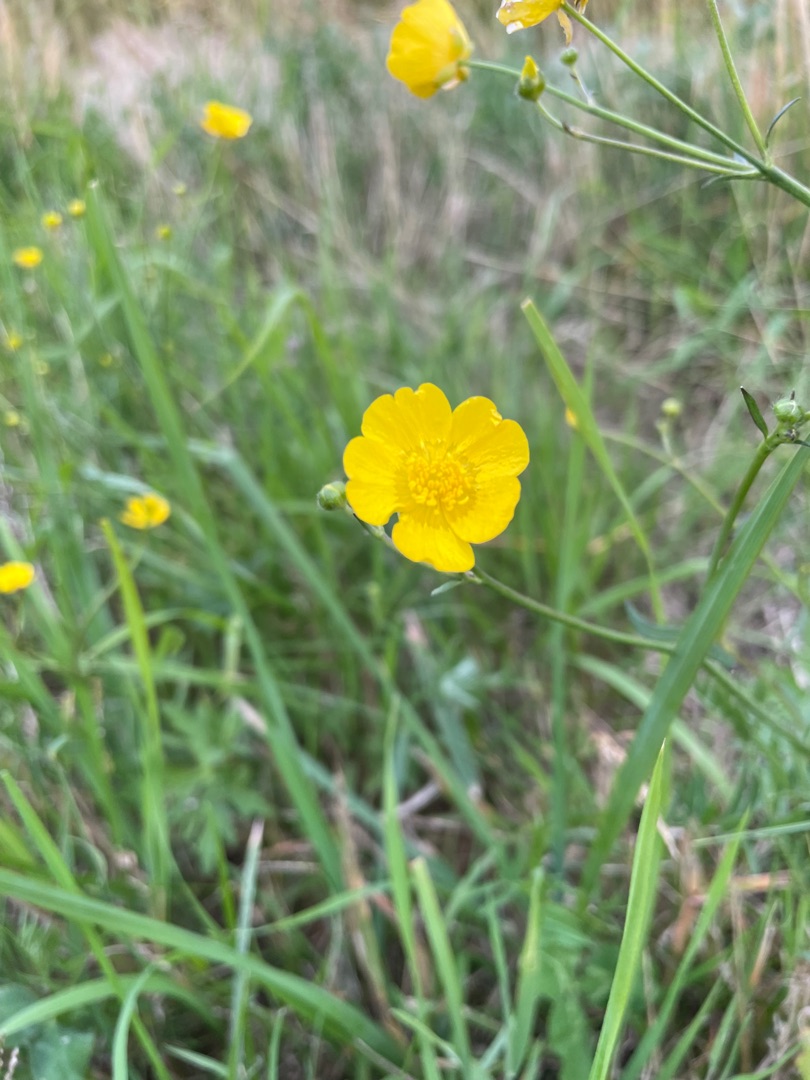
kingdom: Plantae
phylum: Tracheophyta
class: Magnoliopsida
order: Ranunculales
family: Ranunculaceae
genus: Ranunculus
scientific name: Ranunculus acris
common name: Bidende ranunkel
